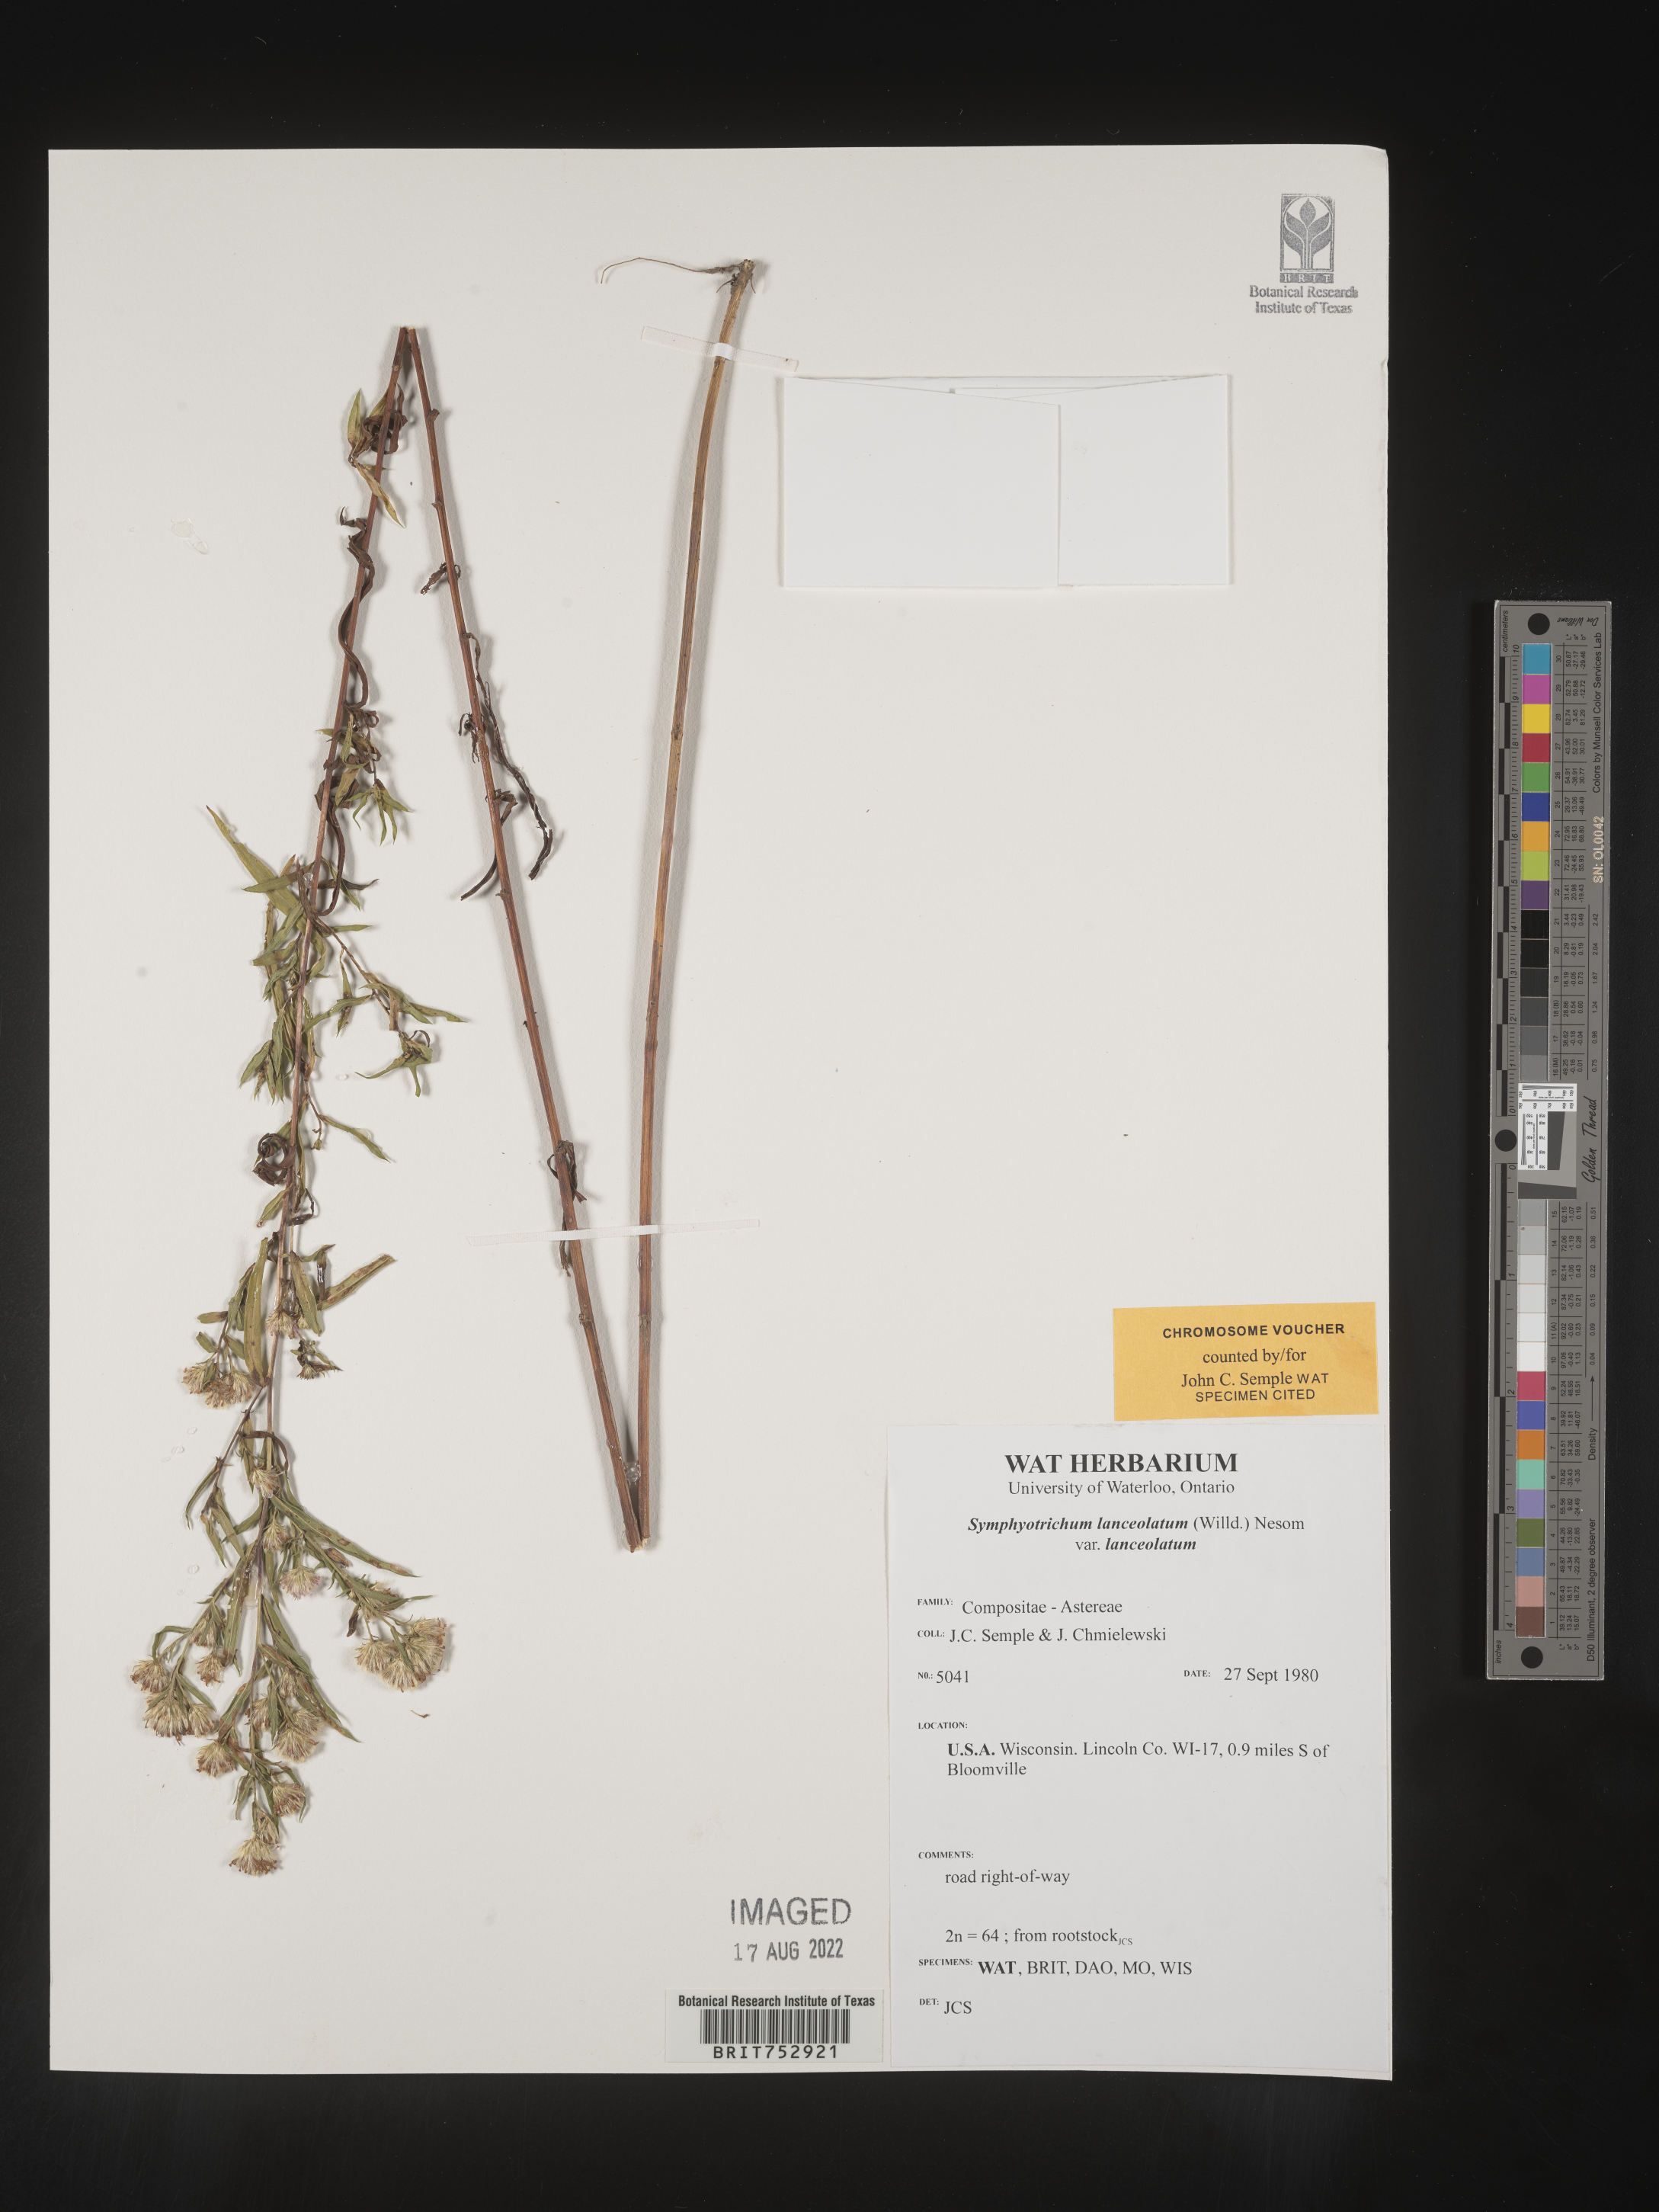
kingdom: Plantae
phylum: Tracheophyta
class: Magnoliopsida
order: Asterales
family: Asteraceae
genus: Symphyotrichum
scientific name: Symphyotrichum lanceolatum
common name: Panicled aster
